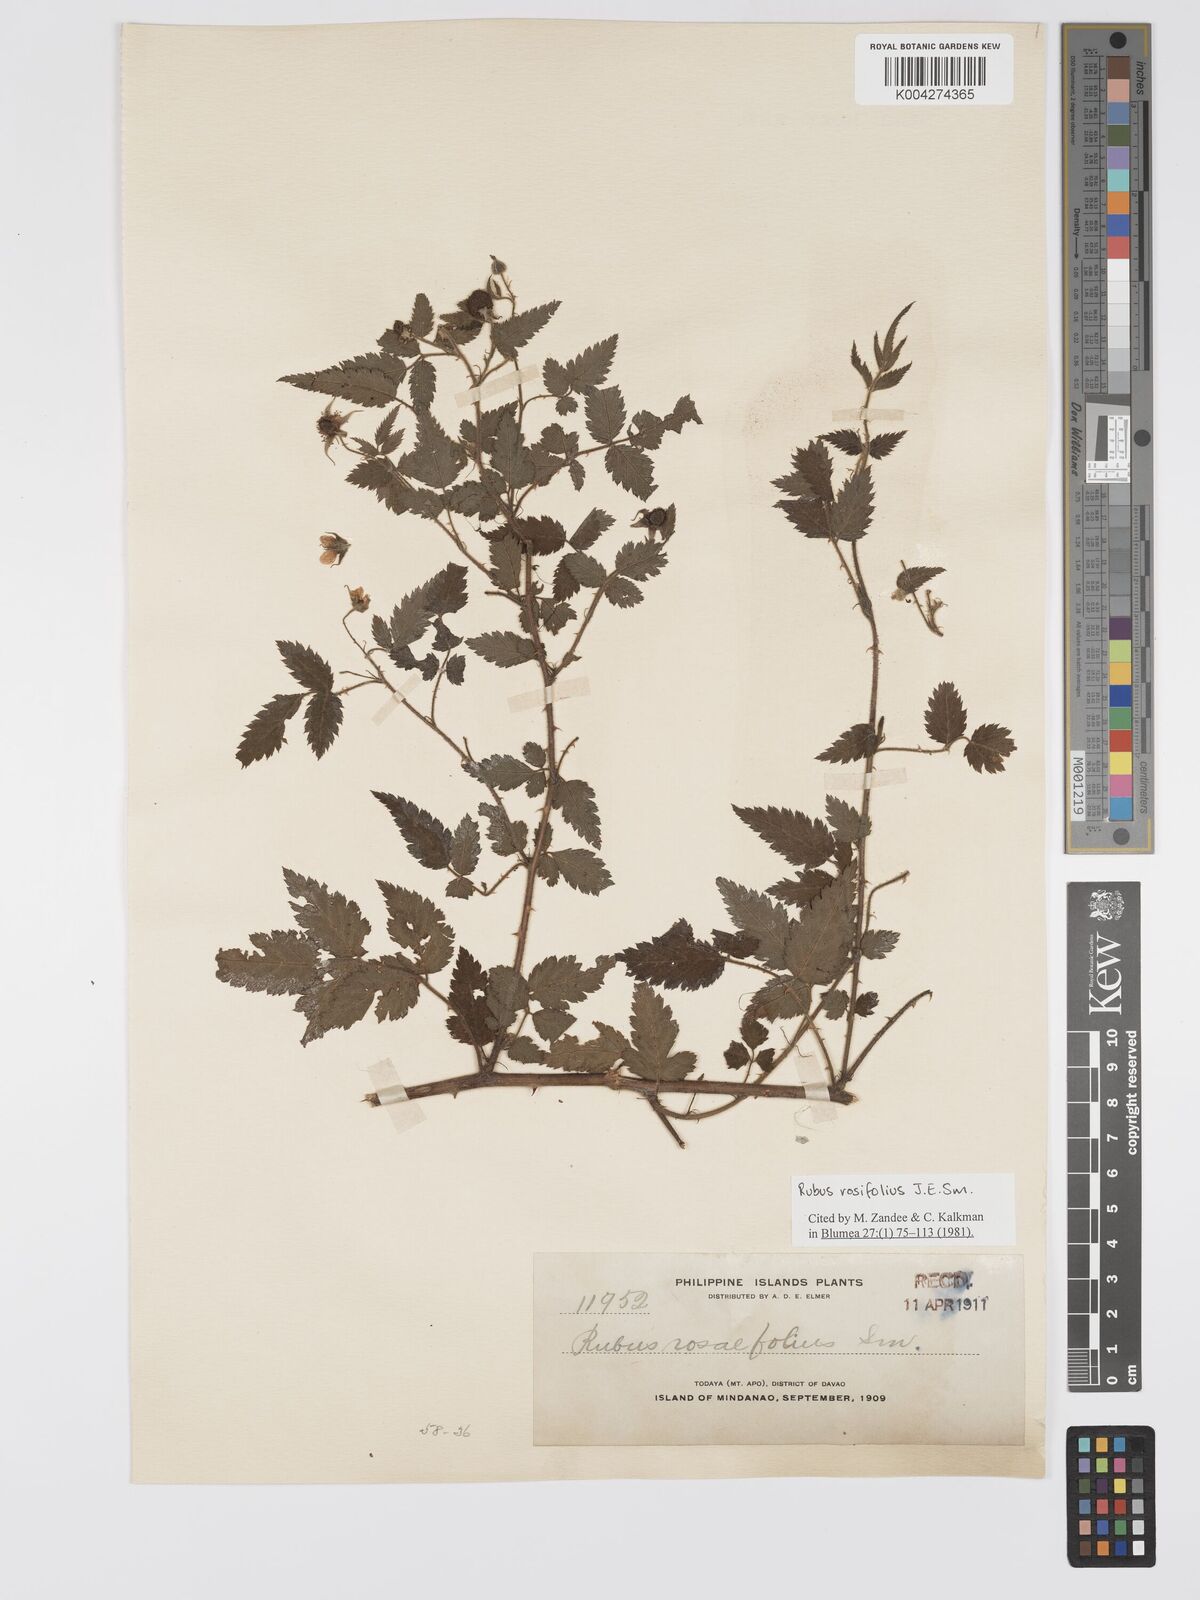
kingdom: Plantae
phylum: Tracheophyta
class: Magnoliopsida
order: Rosales
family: Rosaceae
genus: Rubus
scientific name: Rubus
